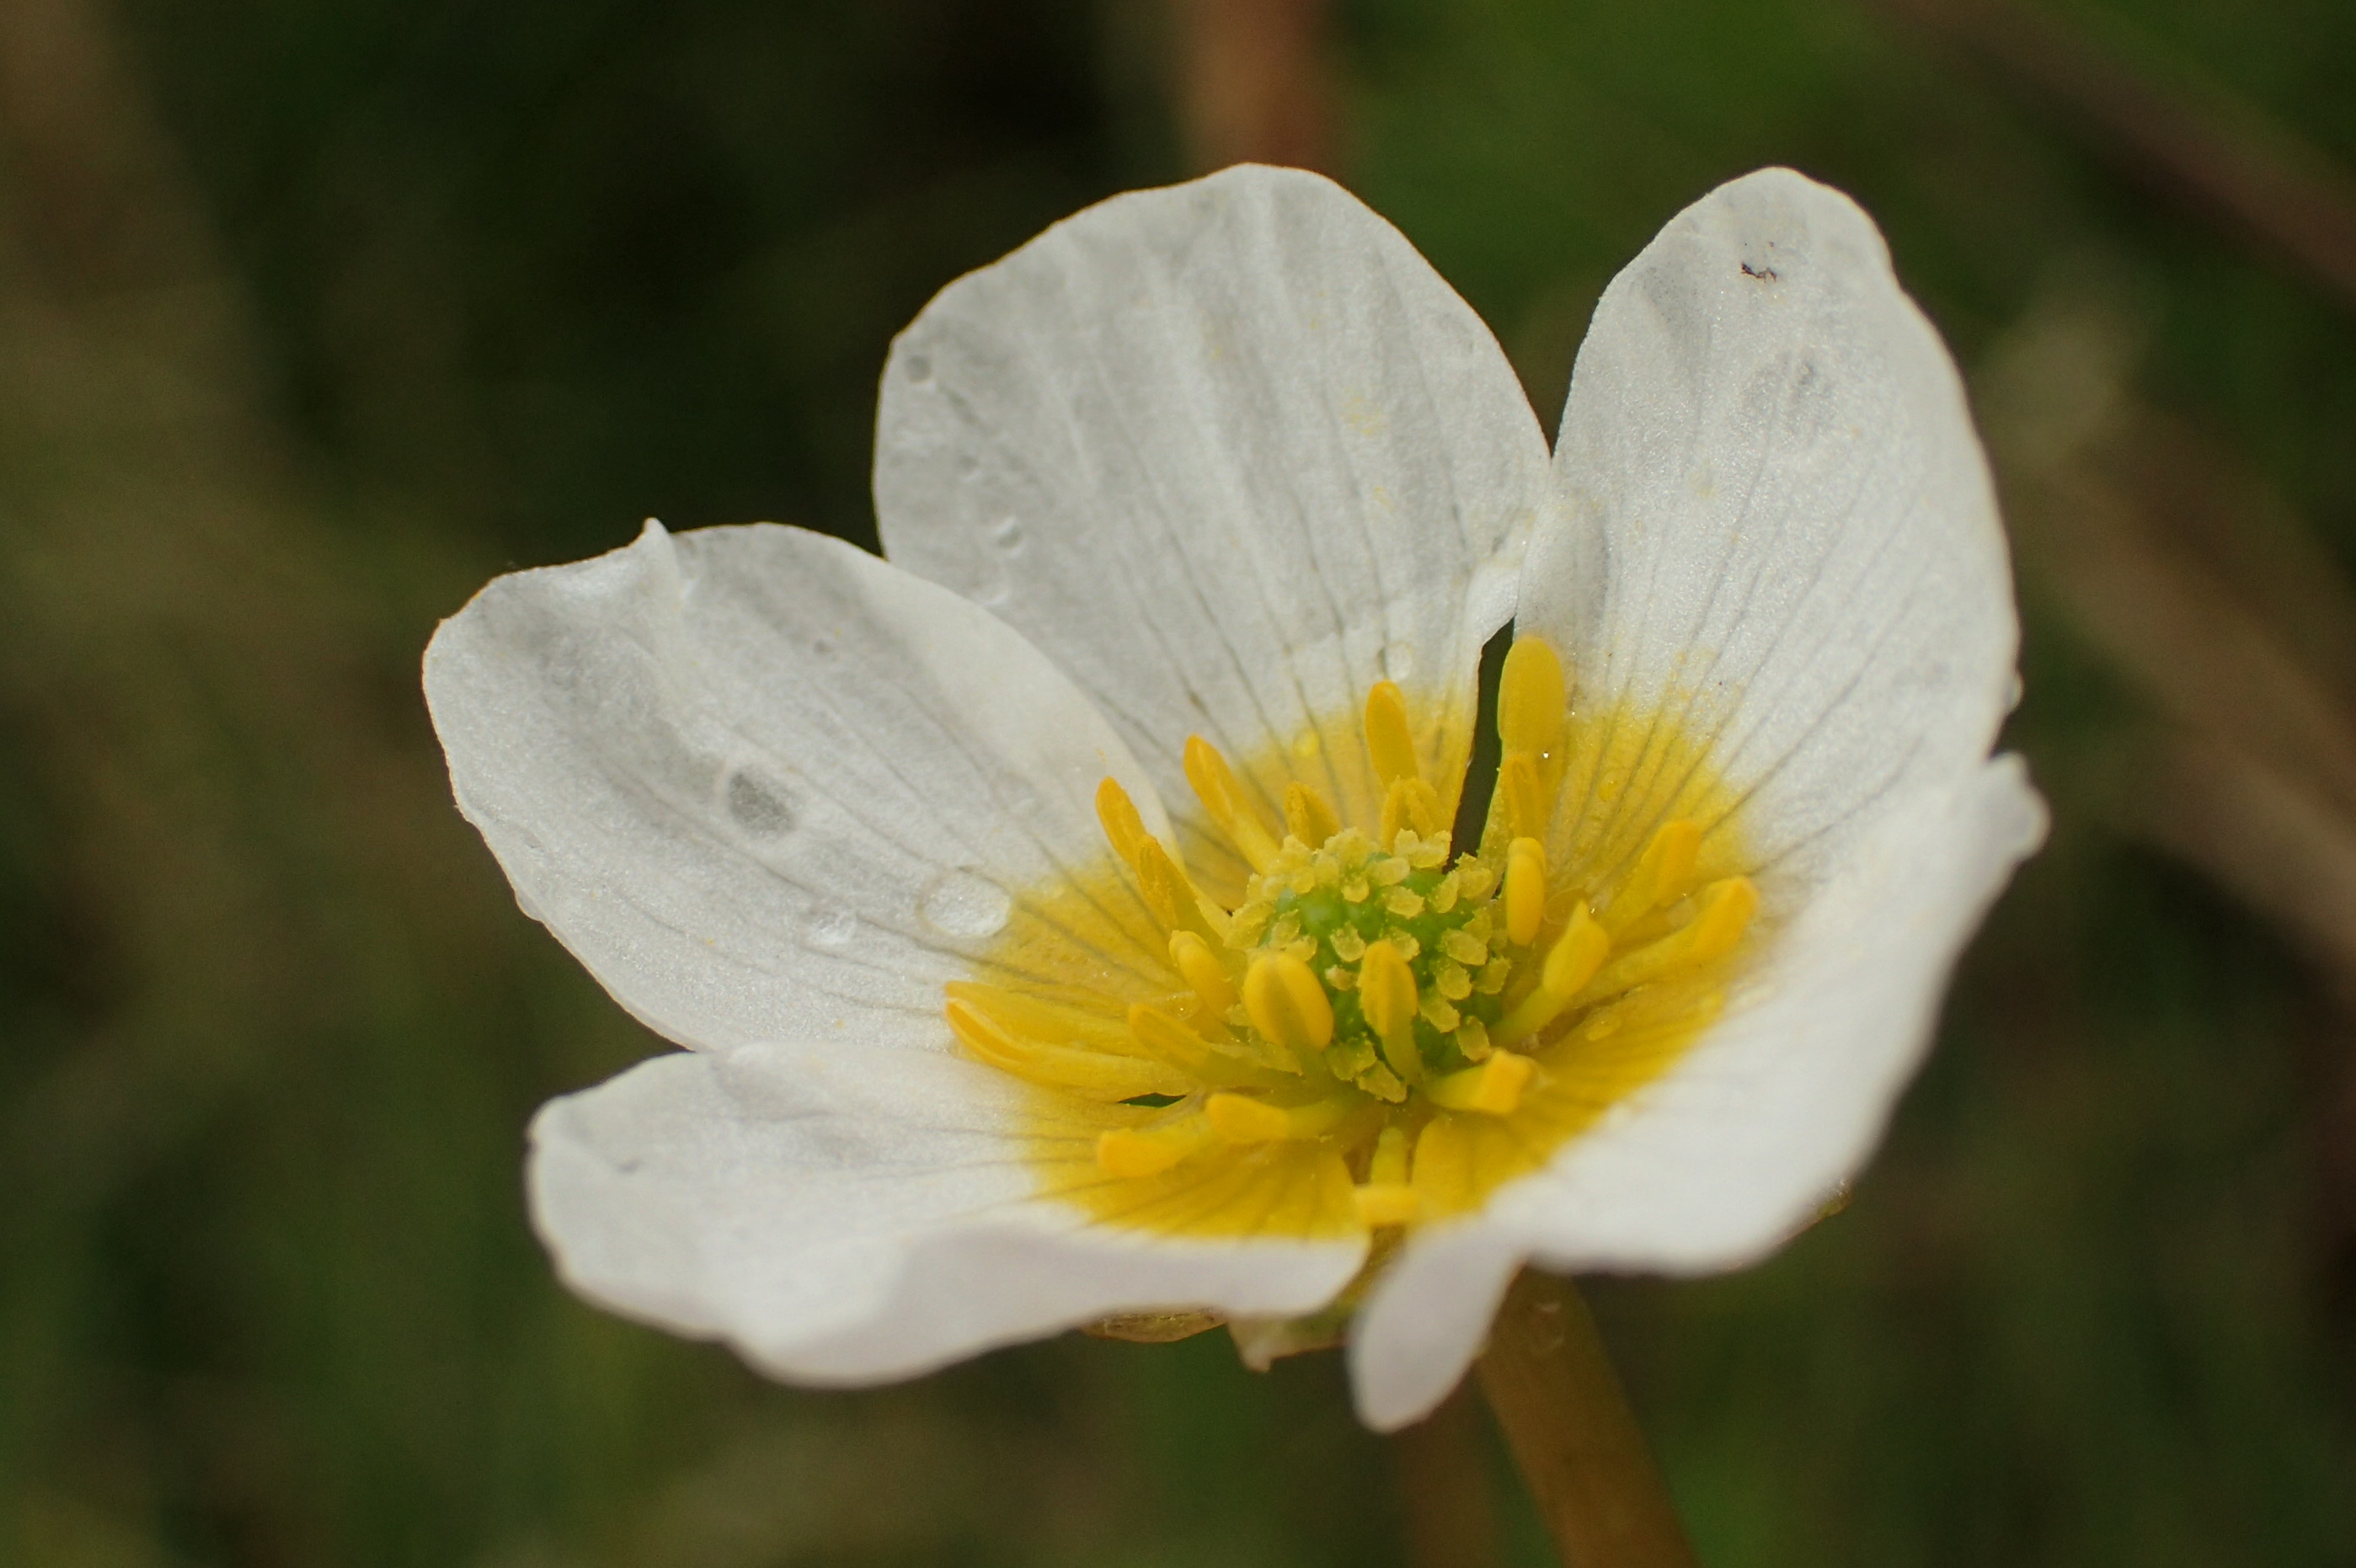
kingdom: Plantae
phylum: Tracheophyta
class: Magnoliopsida
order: Ranunculales
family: Ranunculaceae
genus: Ranunculus
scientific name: Ranunculus peltatus
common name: Strand-vandranunkel
